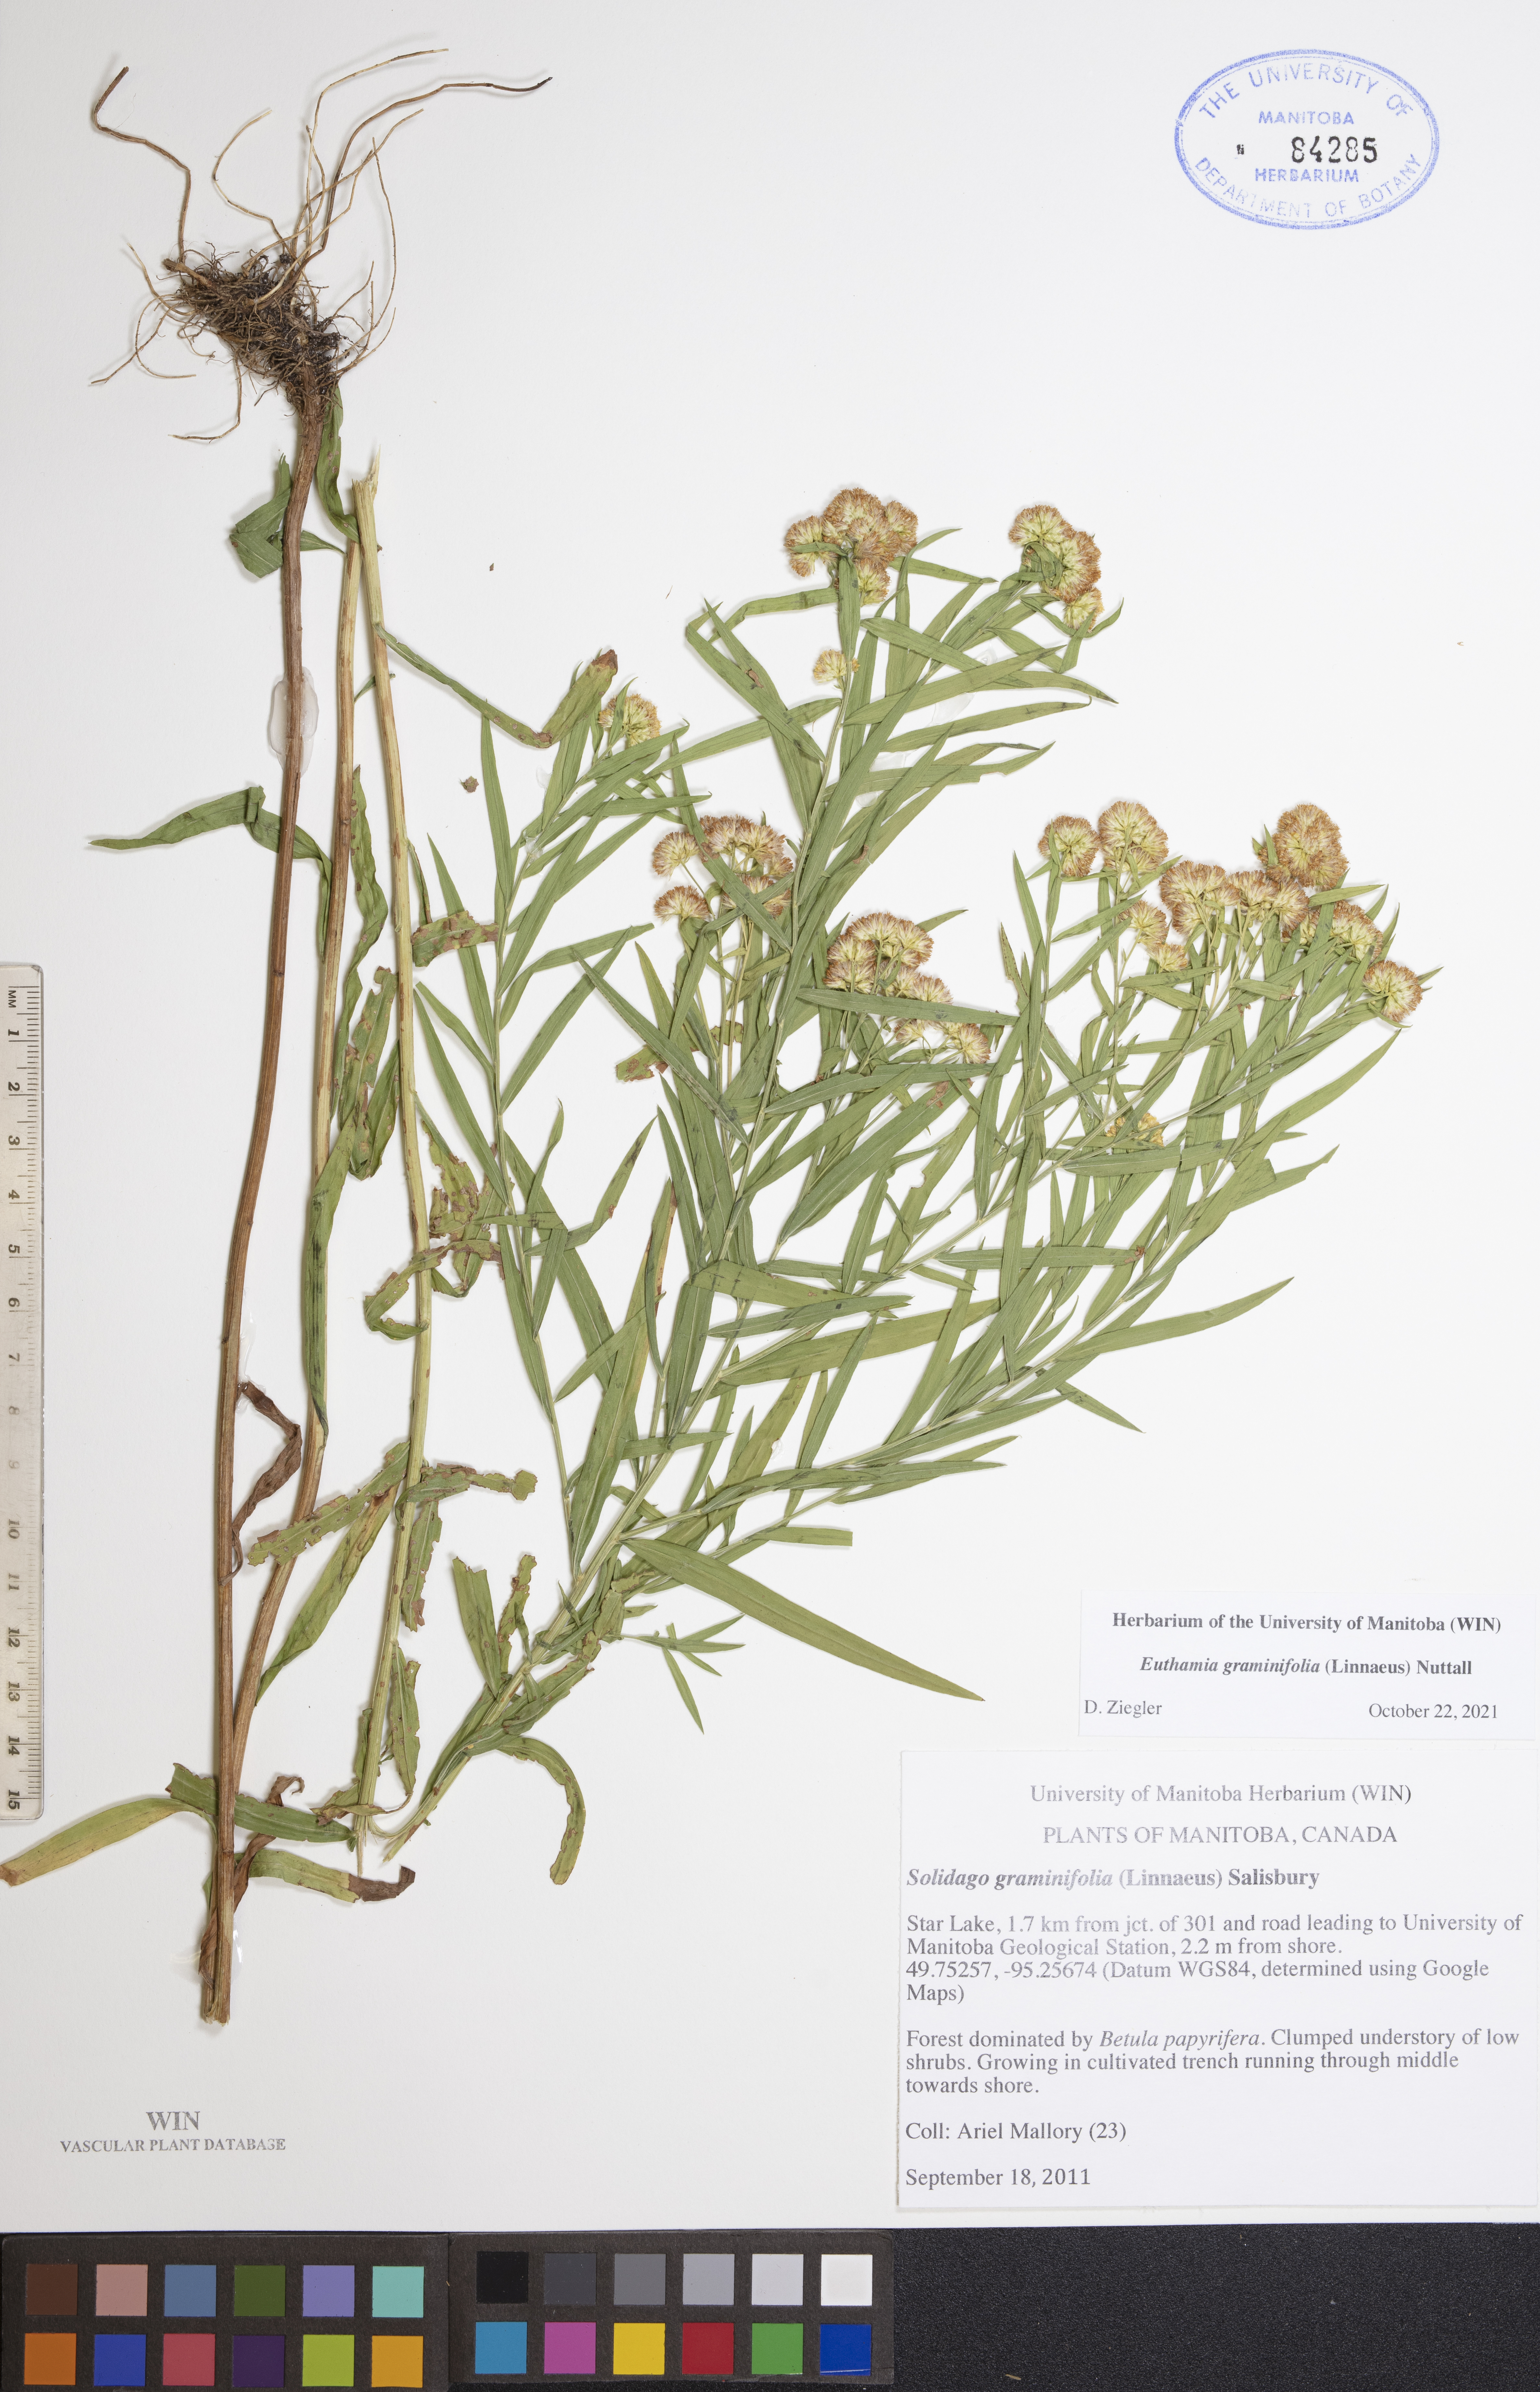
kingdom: Plantae
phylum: Tracheophyta
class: Magnoliopsida
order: Asterales
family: Asteraceae
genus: Euthamia
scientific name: Euthamia graminifolia
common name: Common goldentop
